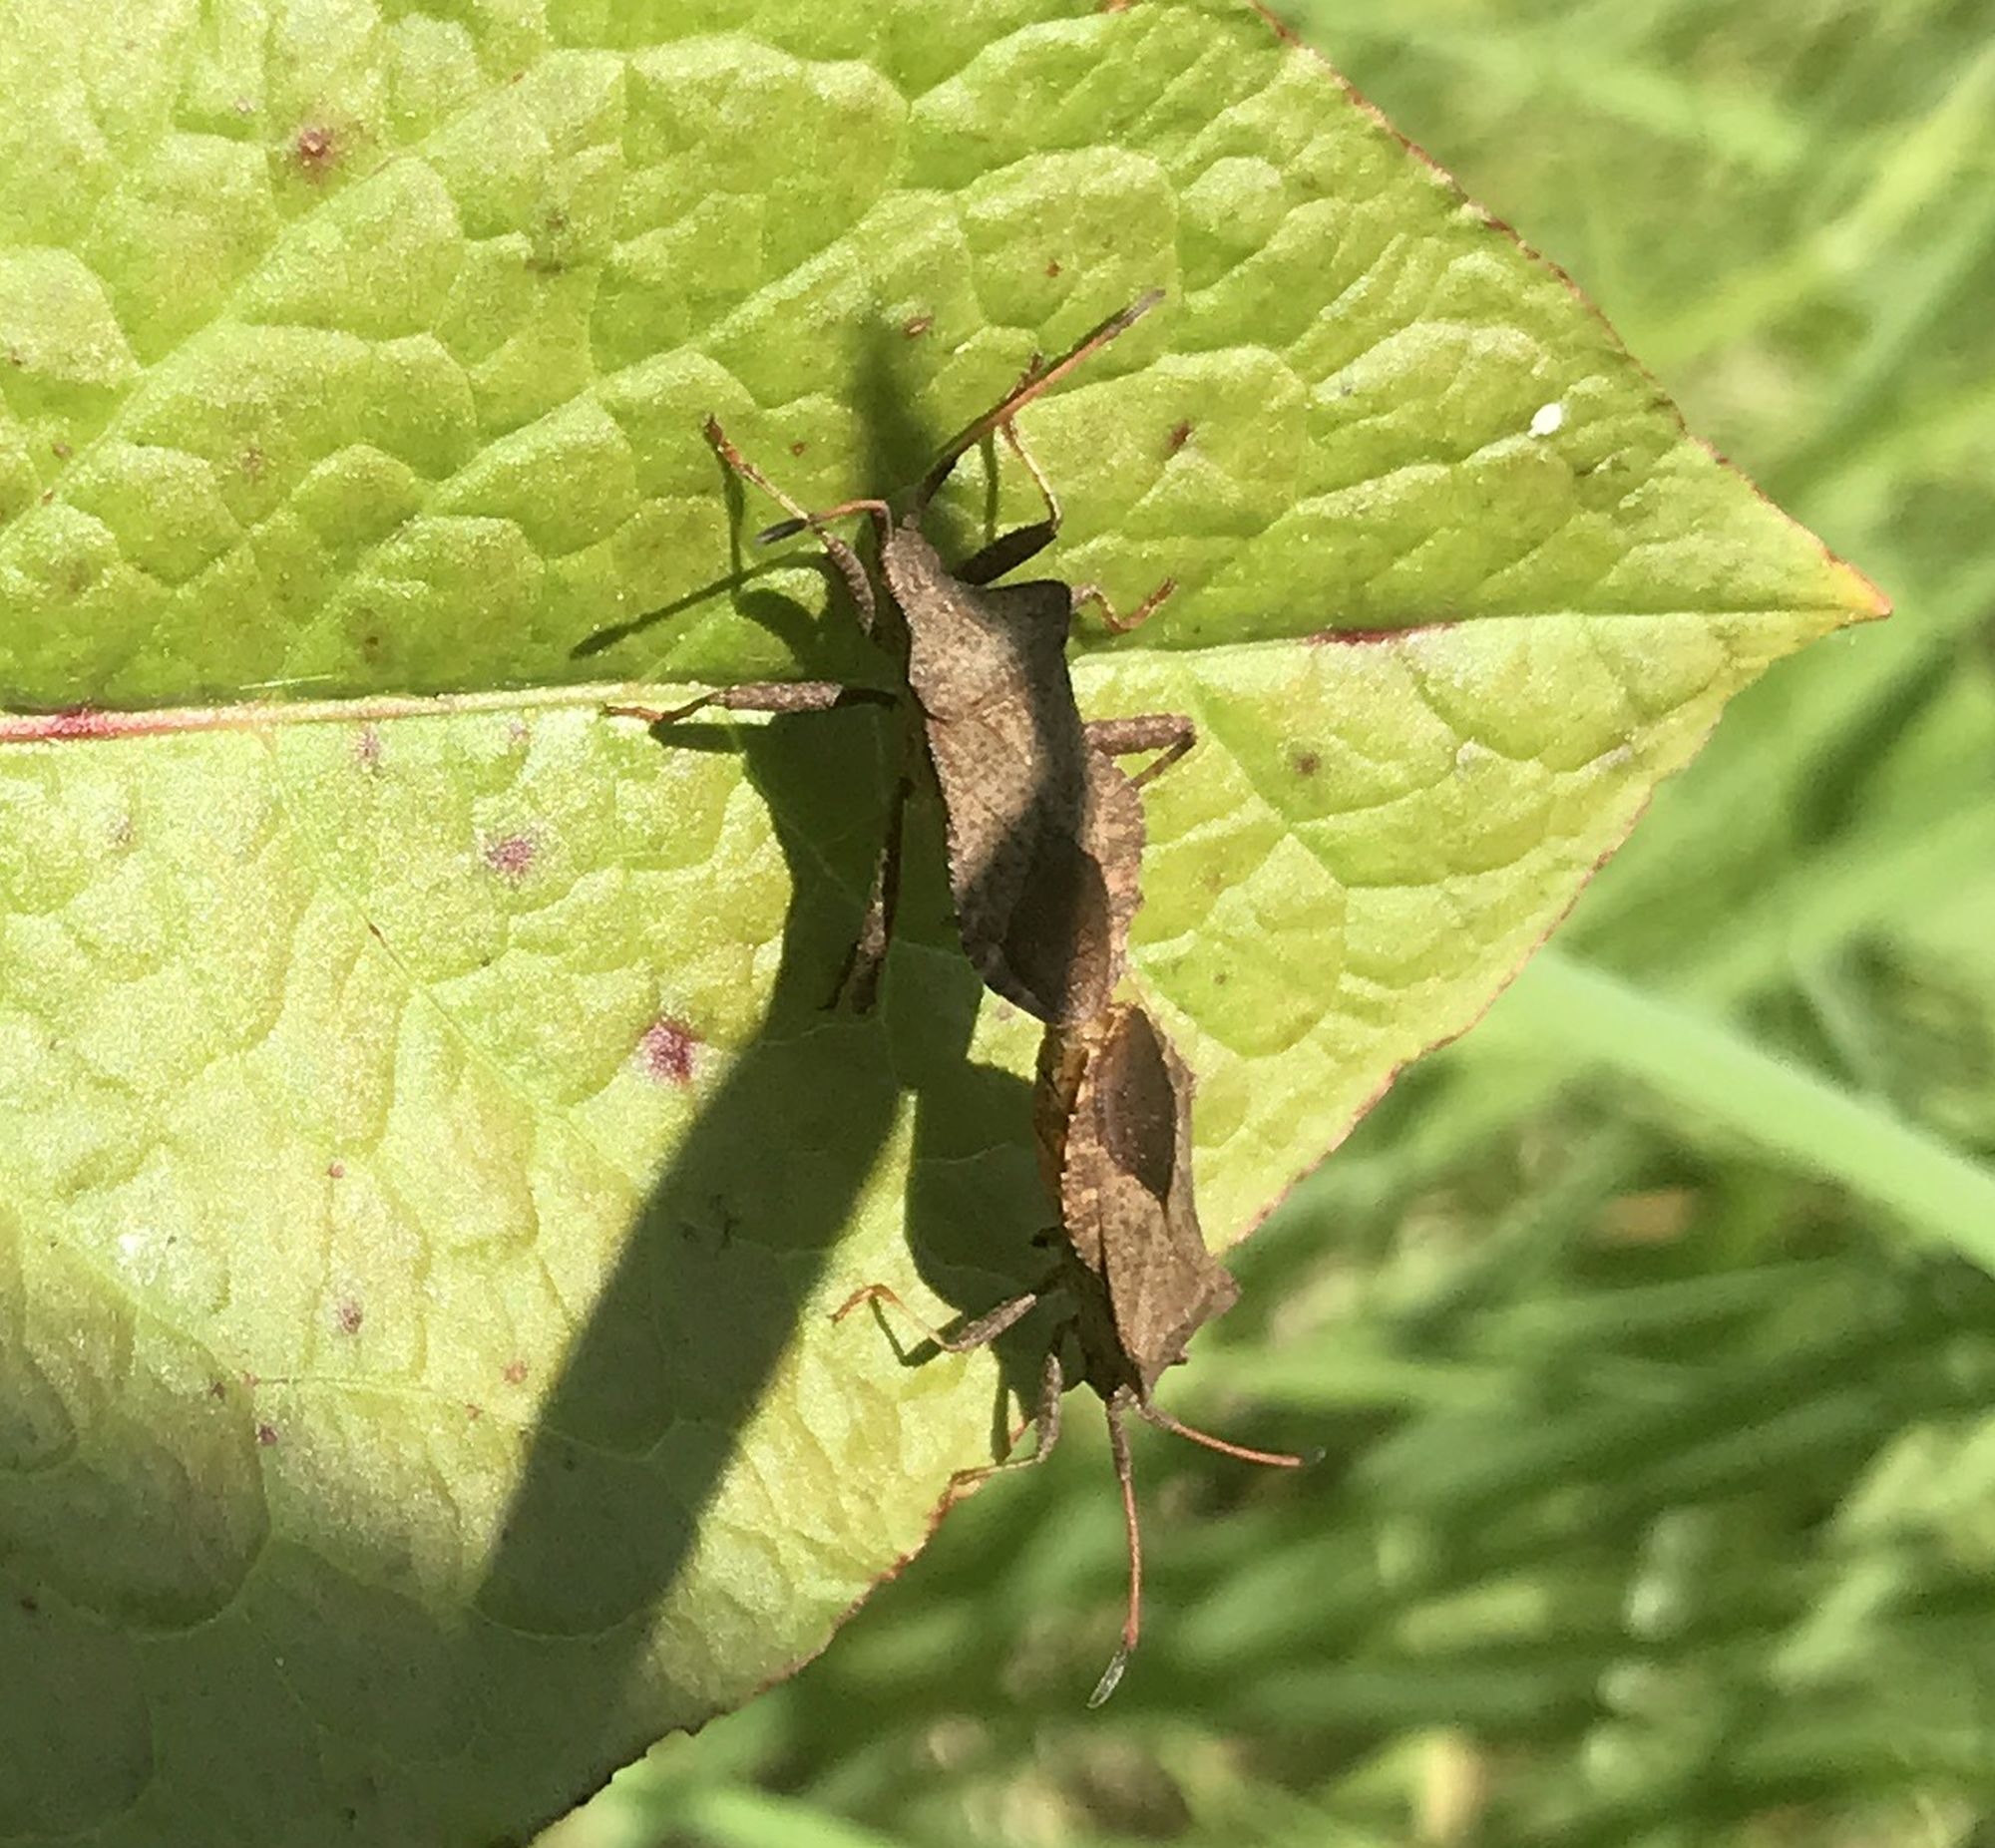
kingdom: Animalia
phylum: Arthropoda
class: Insecta
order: Hemiptera
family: Coreidae
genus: Coreus
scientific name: Coreus marginatus
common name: Skræppetæge
